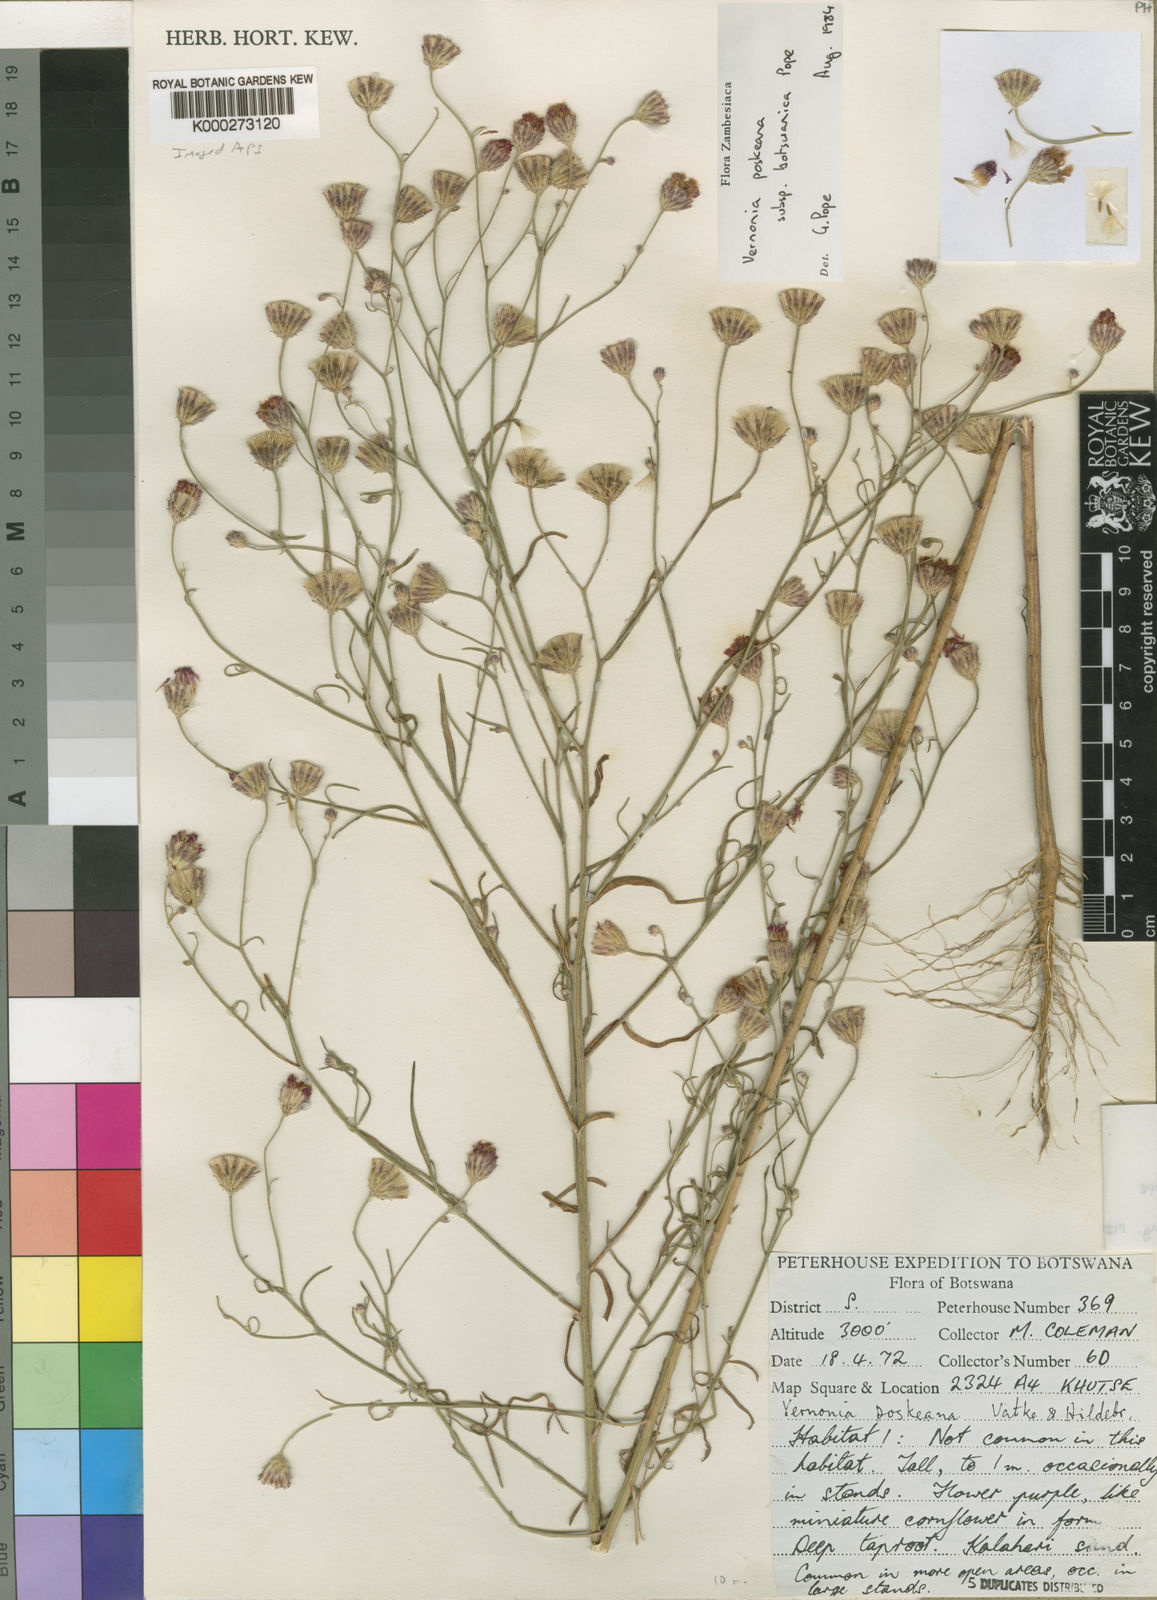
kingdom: Plantae
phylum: Tracheophyta
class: Magnoliopsida
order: Asterales
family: Asteraceae
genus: Crystallopollen
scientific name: Crystallopollen angustifolium
